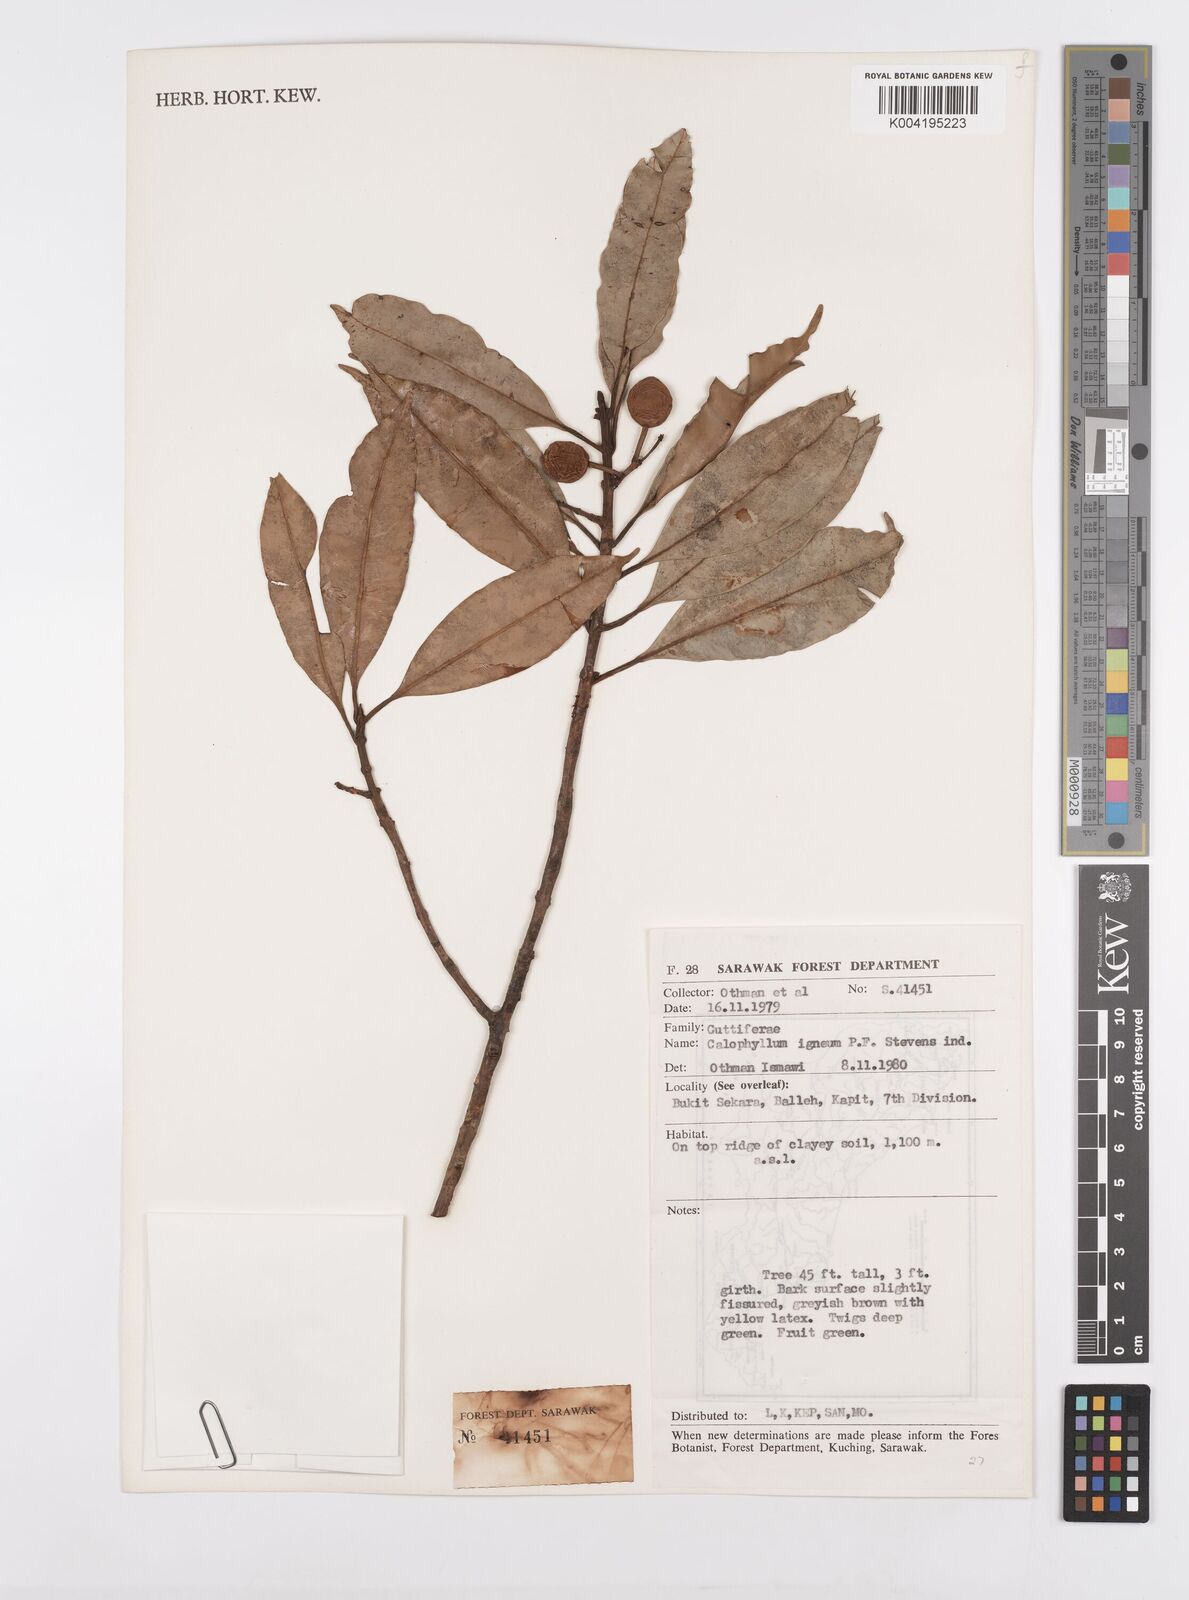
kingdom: Plantae
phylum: Tracheophyta
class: Magnoliopsida
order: Malpighiales
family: Calophyllaceae
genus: Calophyllum
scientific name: Calophyllum
